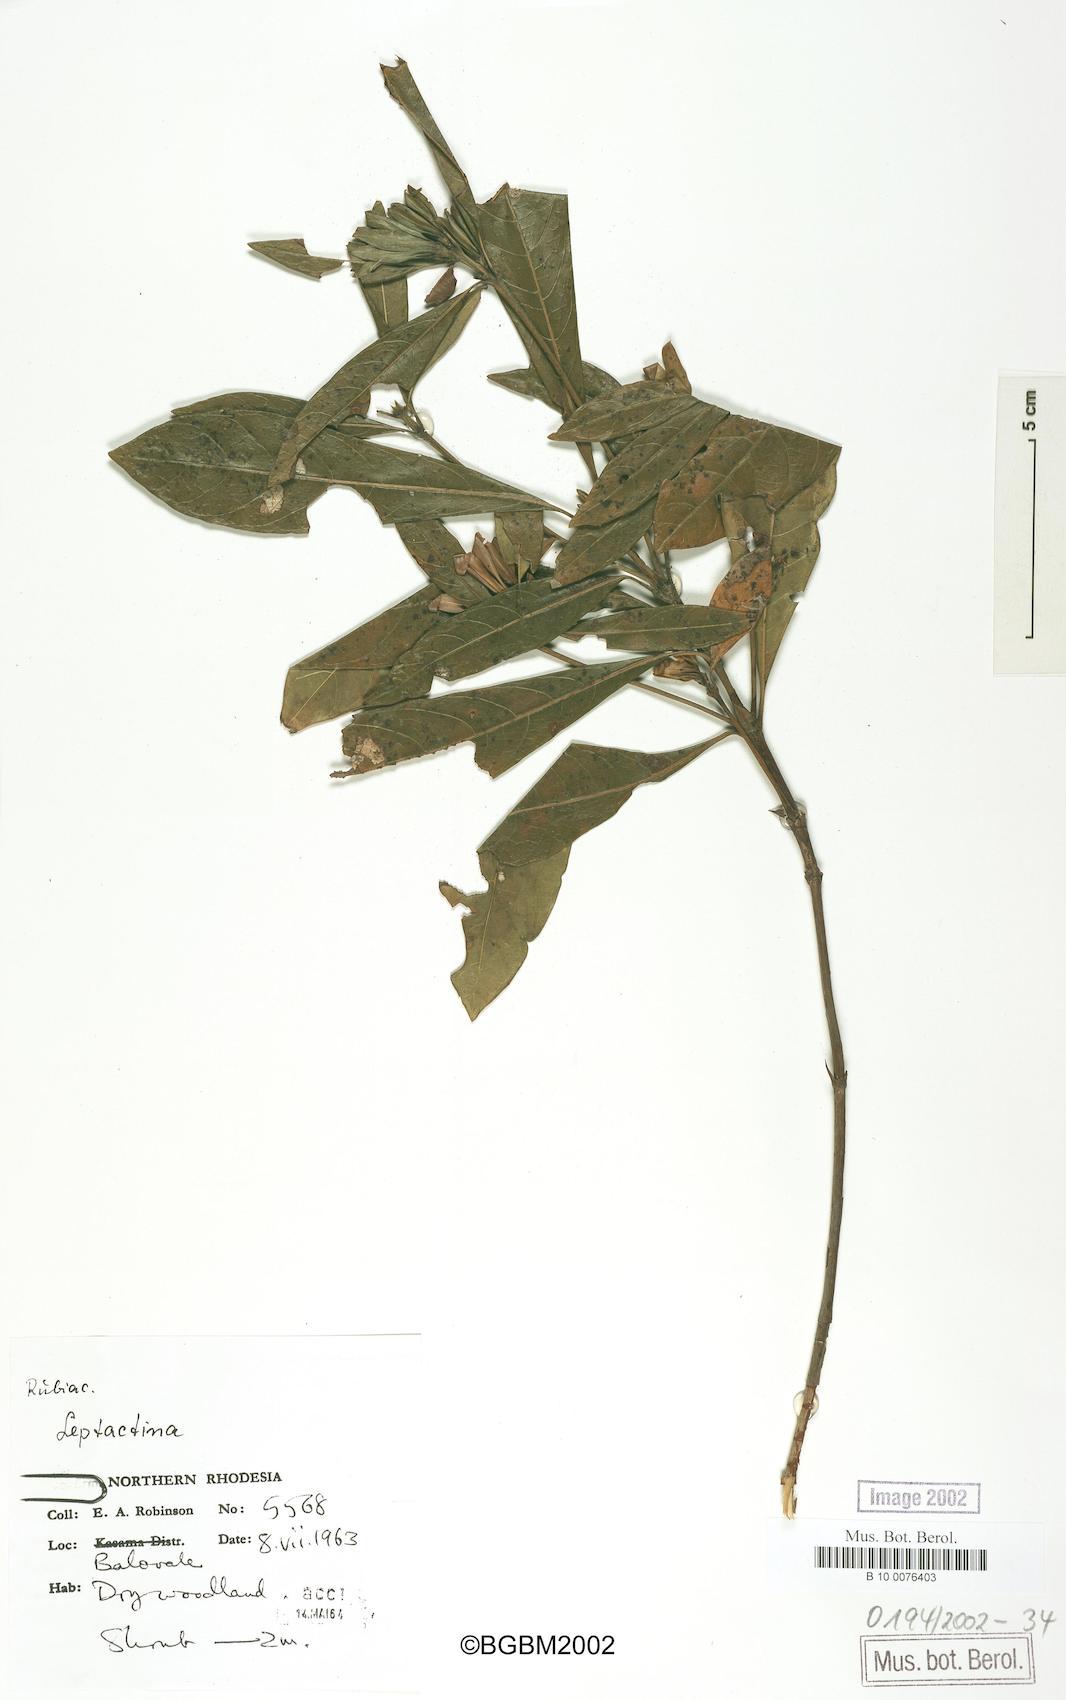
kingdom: Plantae
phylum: Tracheophyta
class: Magnoliopsida
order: Gentianales
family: Rubiaceae
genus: Leptactinia
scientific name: Leptactinia
